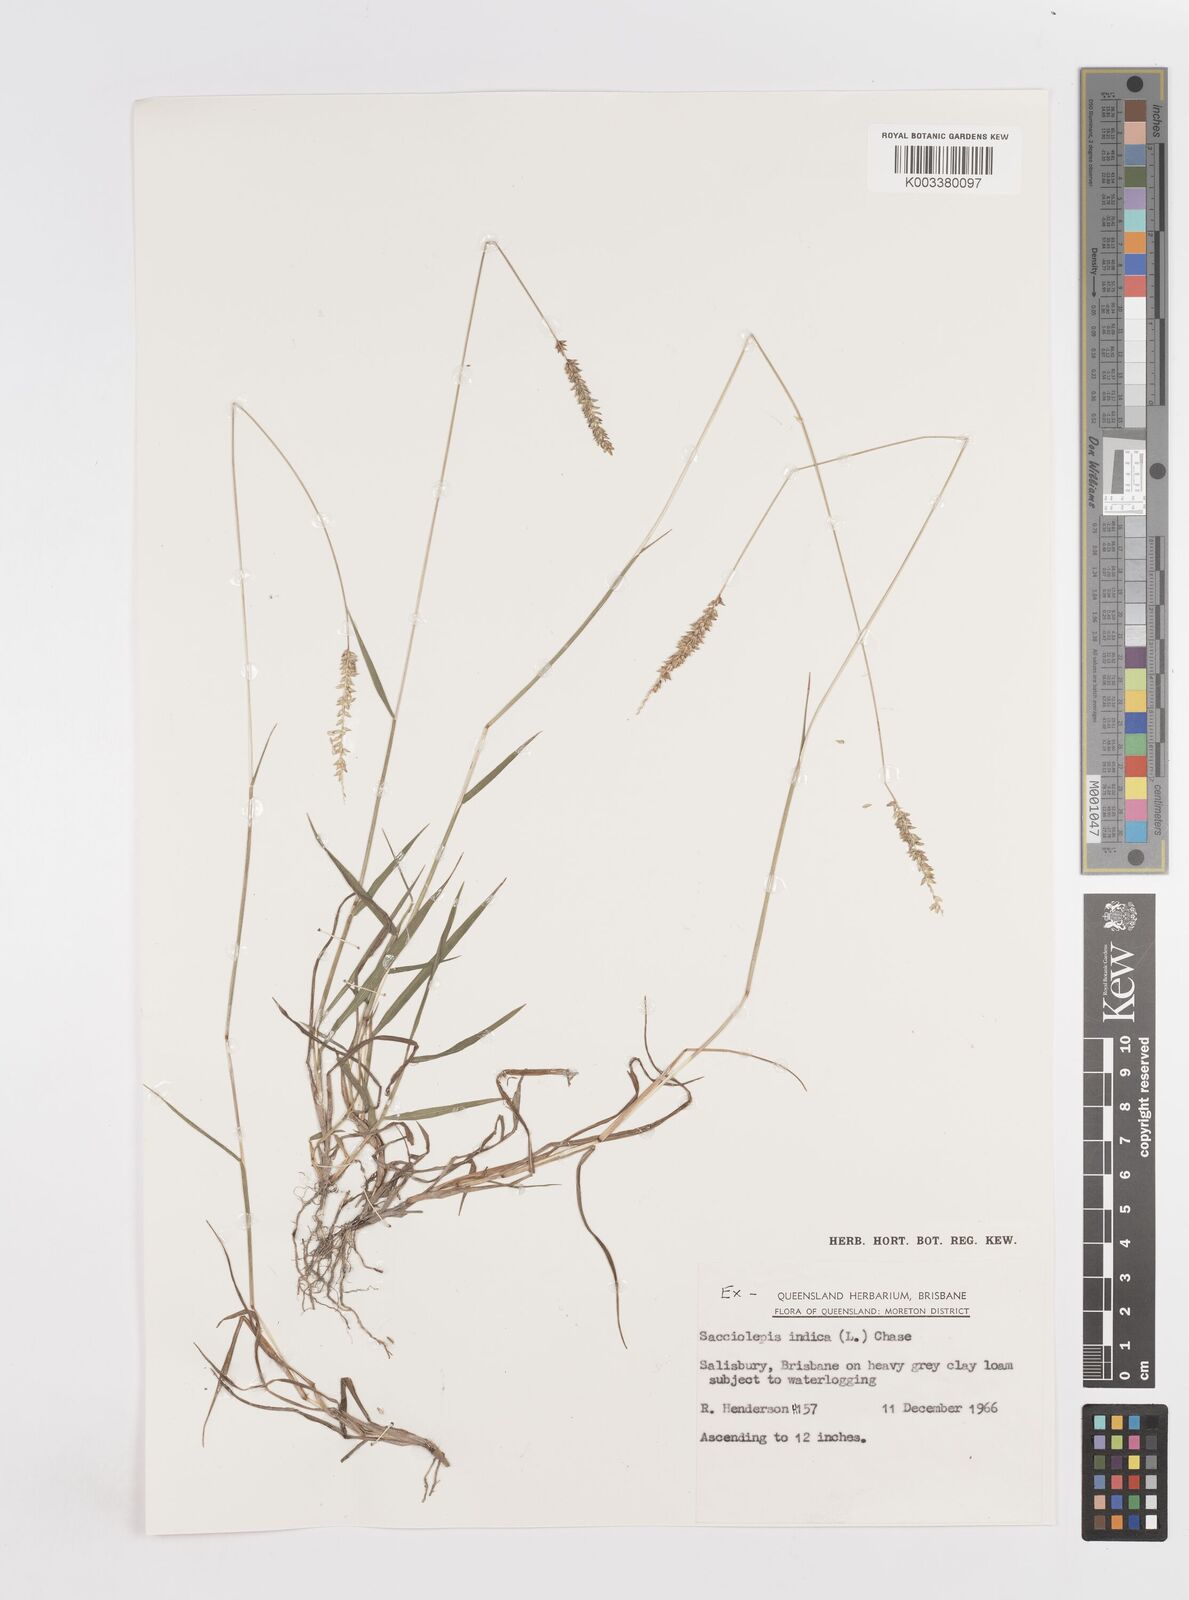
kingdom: Plantae
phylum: Tracheophyta
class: Liliopsida
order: Poales
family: Poaceae
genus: Sacciolepis
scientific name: Sacciolepis indica
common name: Glenwoodgrass
